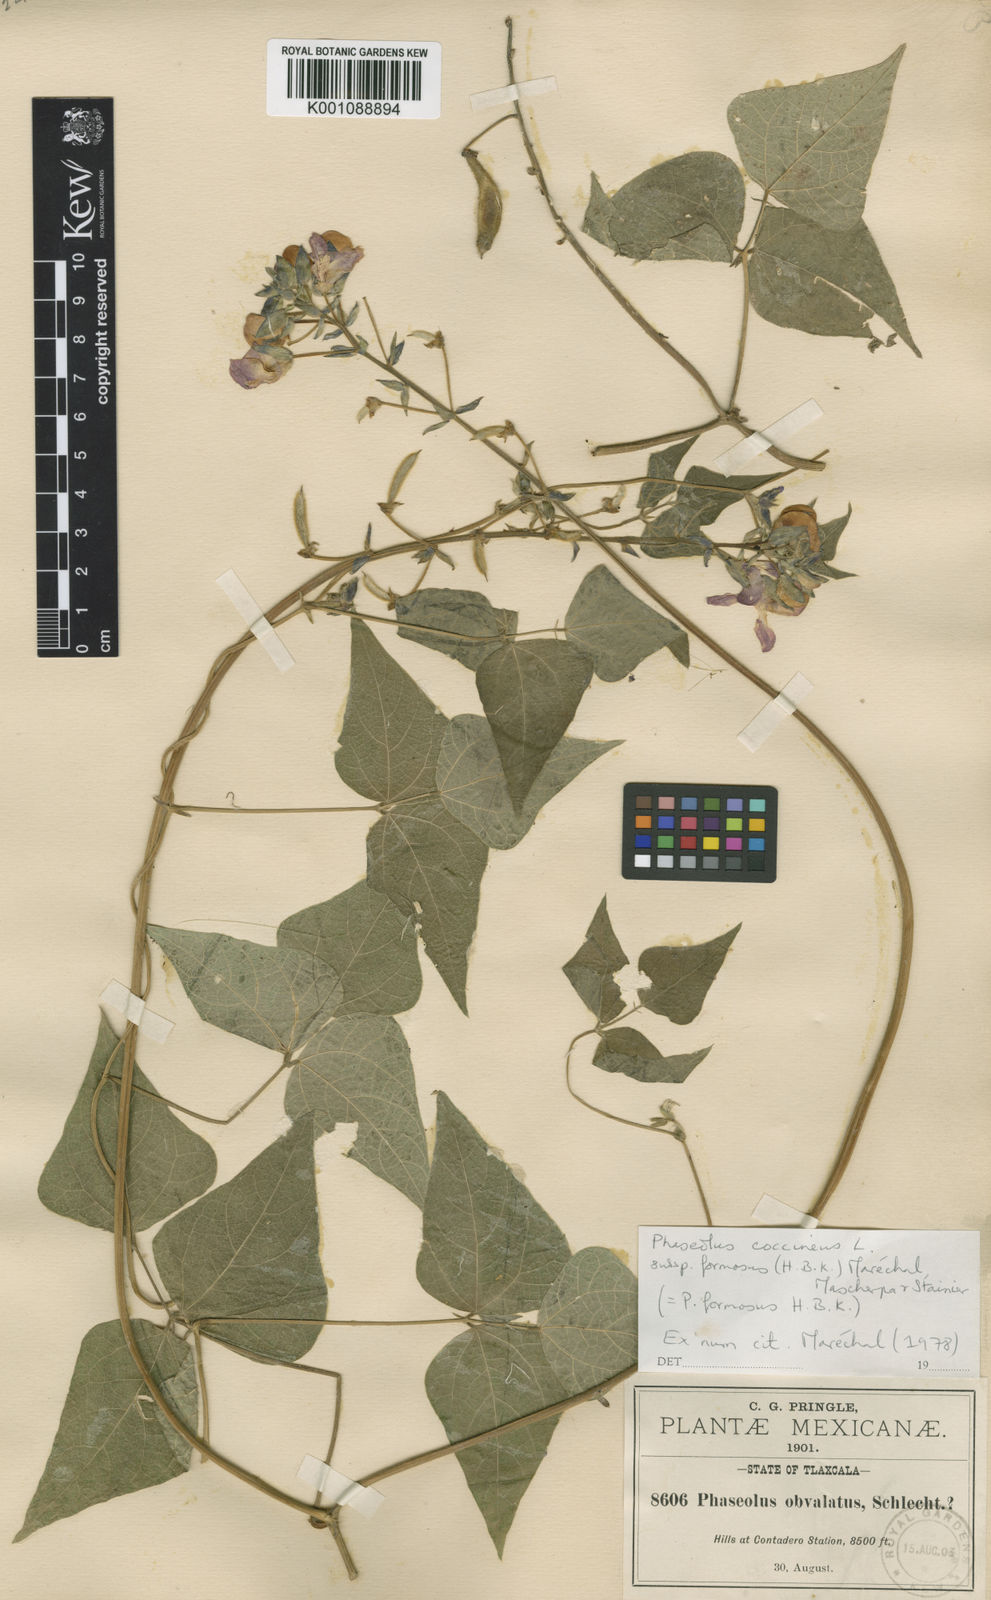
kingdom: Plantae
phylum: Tracheophyta
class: Magnoliopsida
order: Fabales
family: Fabaceae
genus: Phaseolus
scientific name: Phaseolus coccineus
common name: Runner bean
